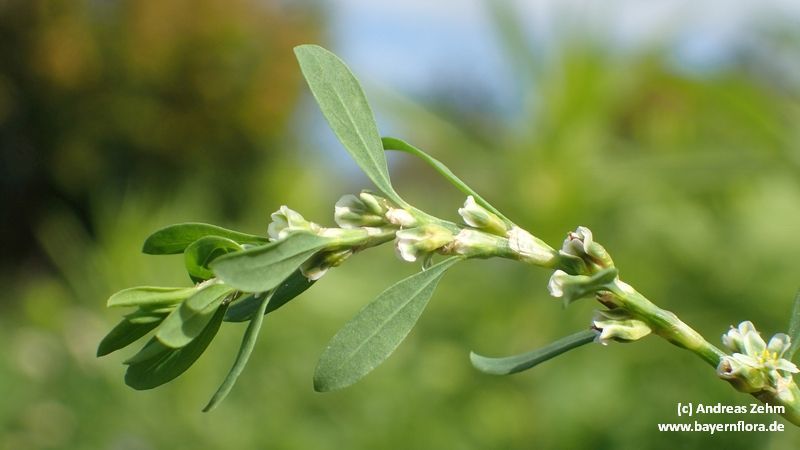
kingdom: Plantae
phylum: Tracheophyta
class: Magnoliopsida
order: Caryophyllales
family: Polygonaceae
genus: Polygonum
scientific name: Polygonum aviculare
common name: Prostrate knotweed
